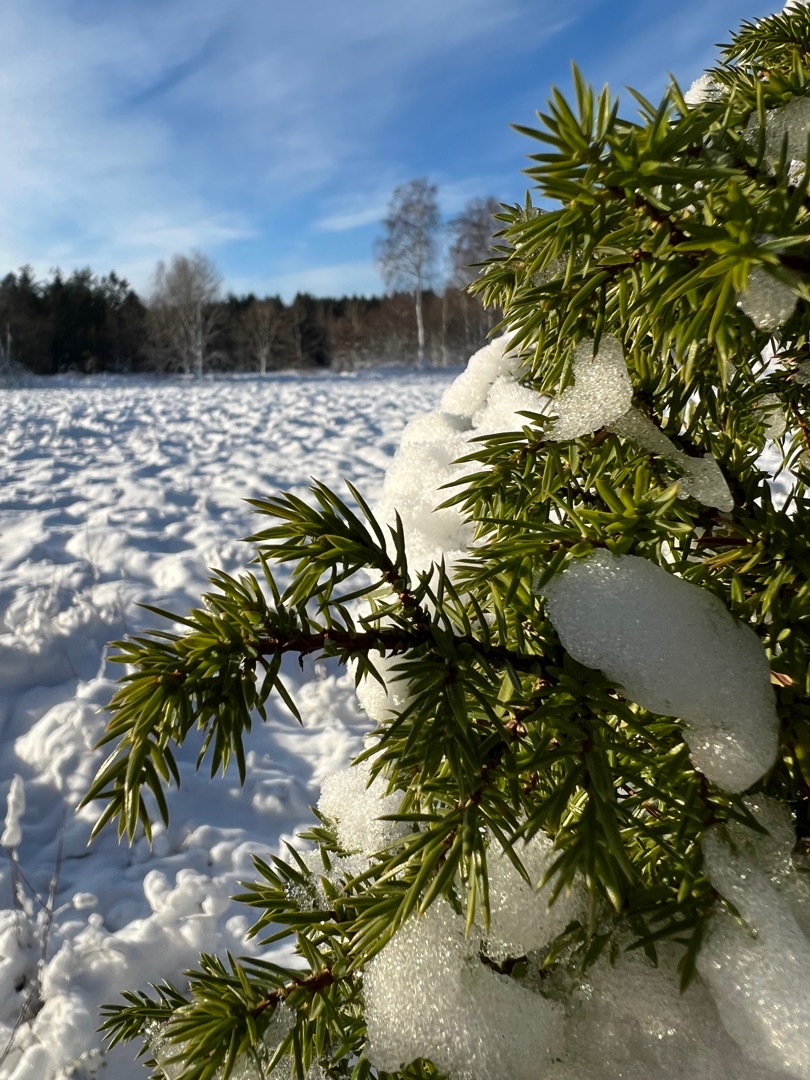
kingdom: Plantae
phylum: Tracheophyta
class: Pinopsida
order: Pinales
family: Cupressaceae
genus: Juniperus
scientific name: Juniperus communis
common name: Almindelig ene
